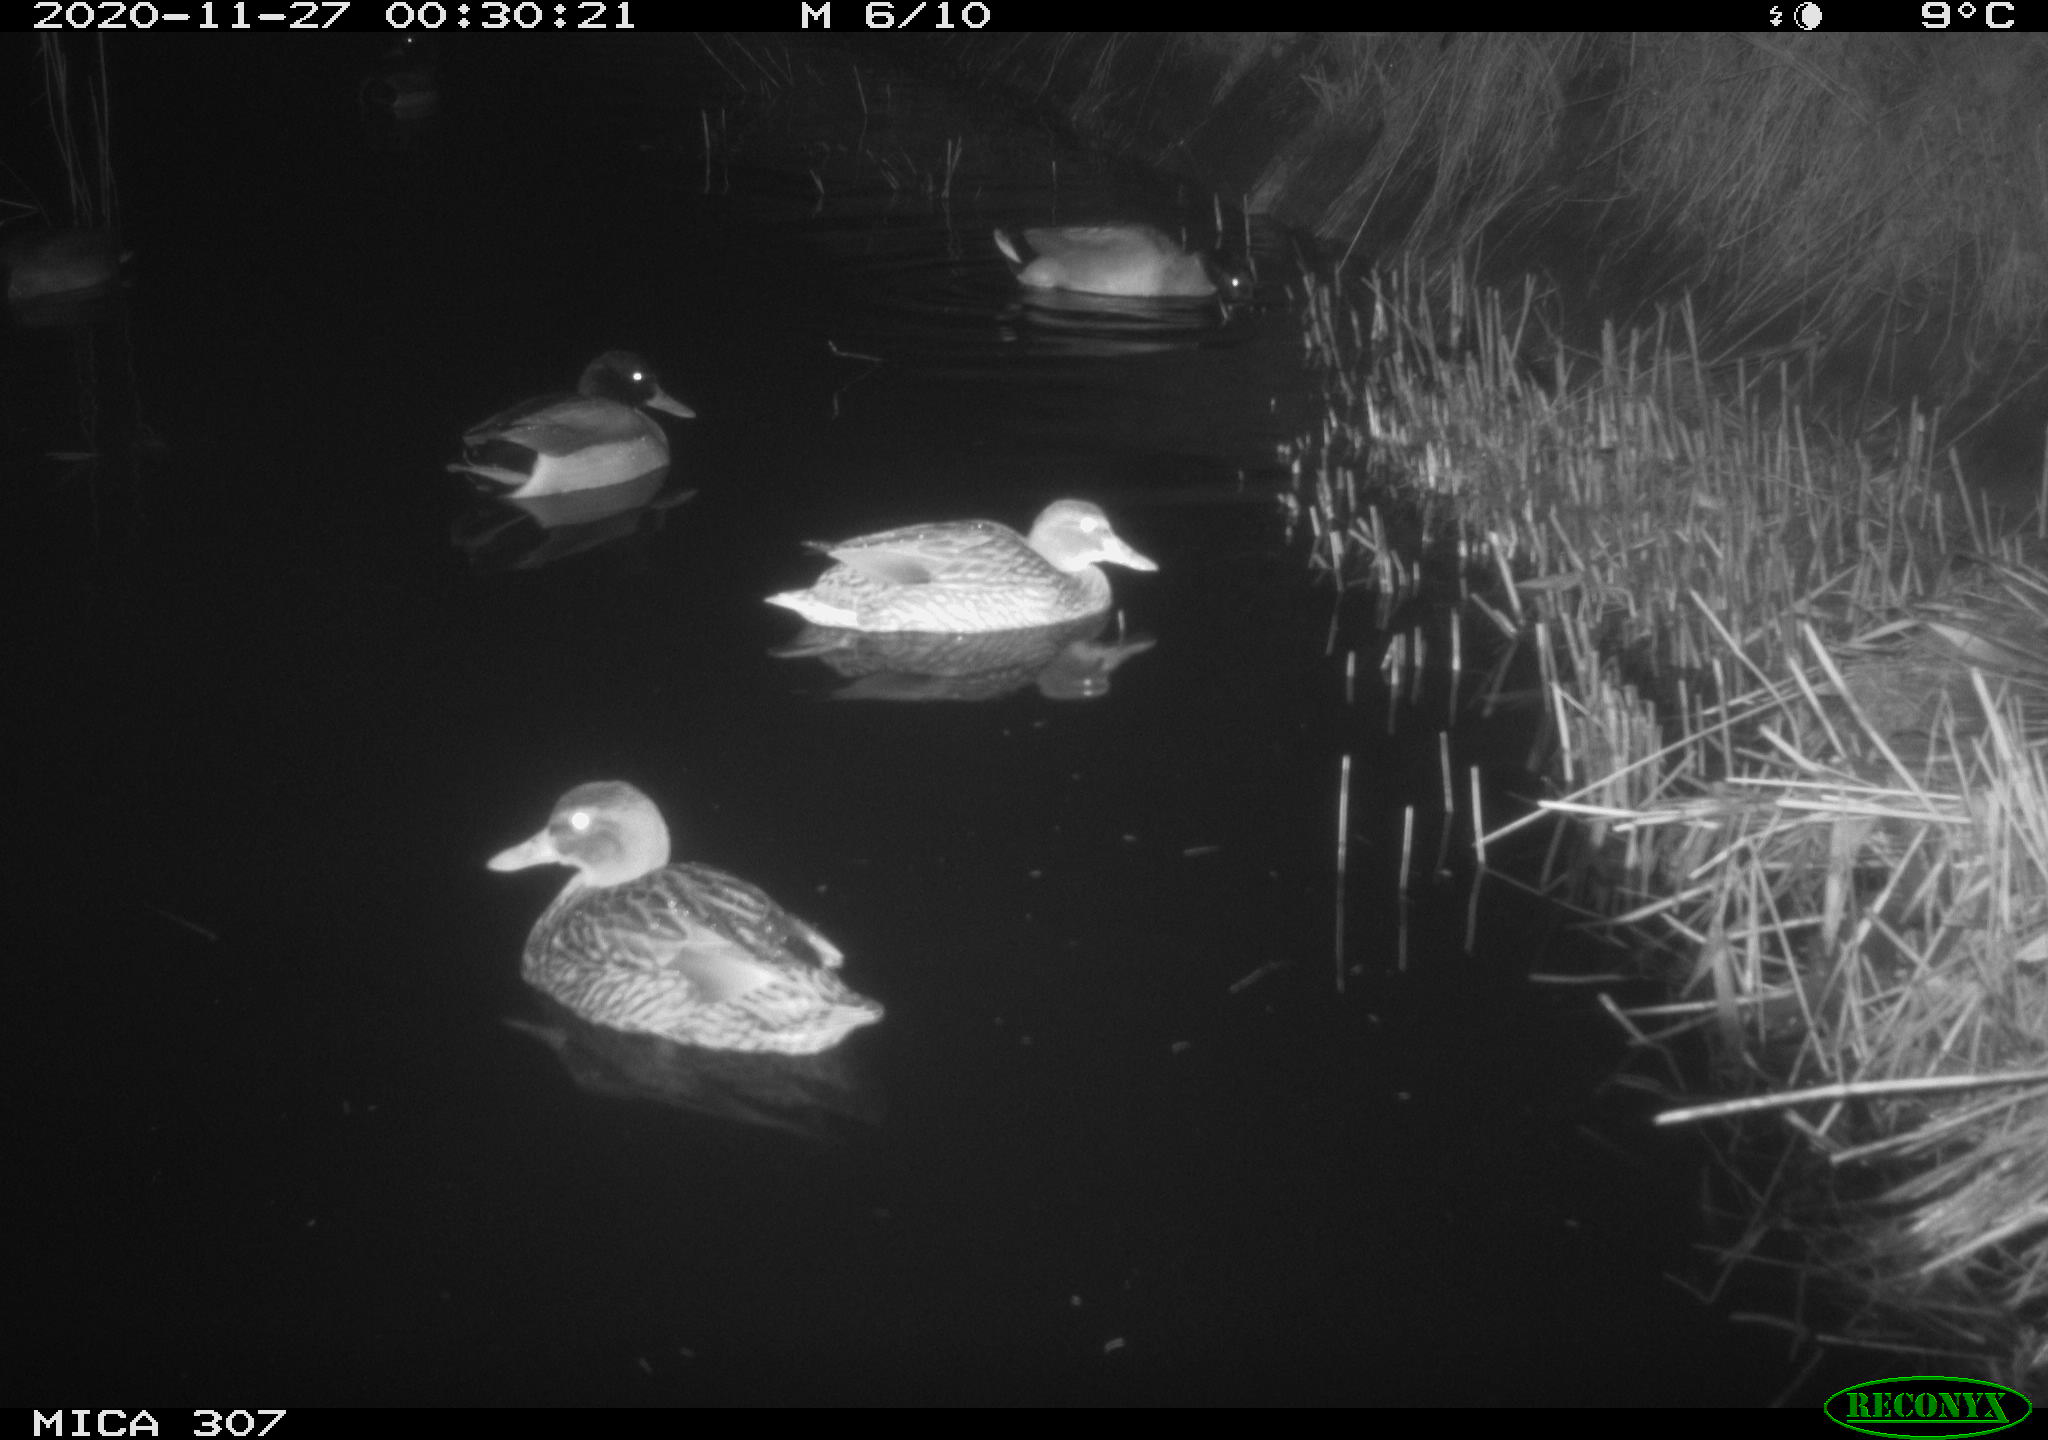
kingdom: Animalia
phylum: Chordata
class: Aves
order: Anseriformes
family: Anatidae
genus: Anas
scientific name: Anas platyrhynchos
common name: Mallard
